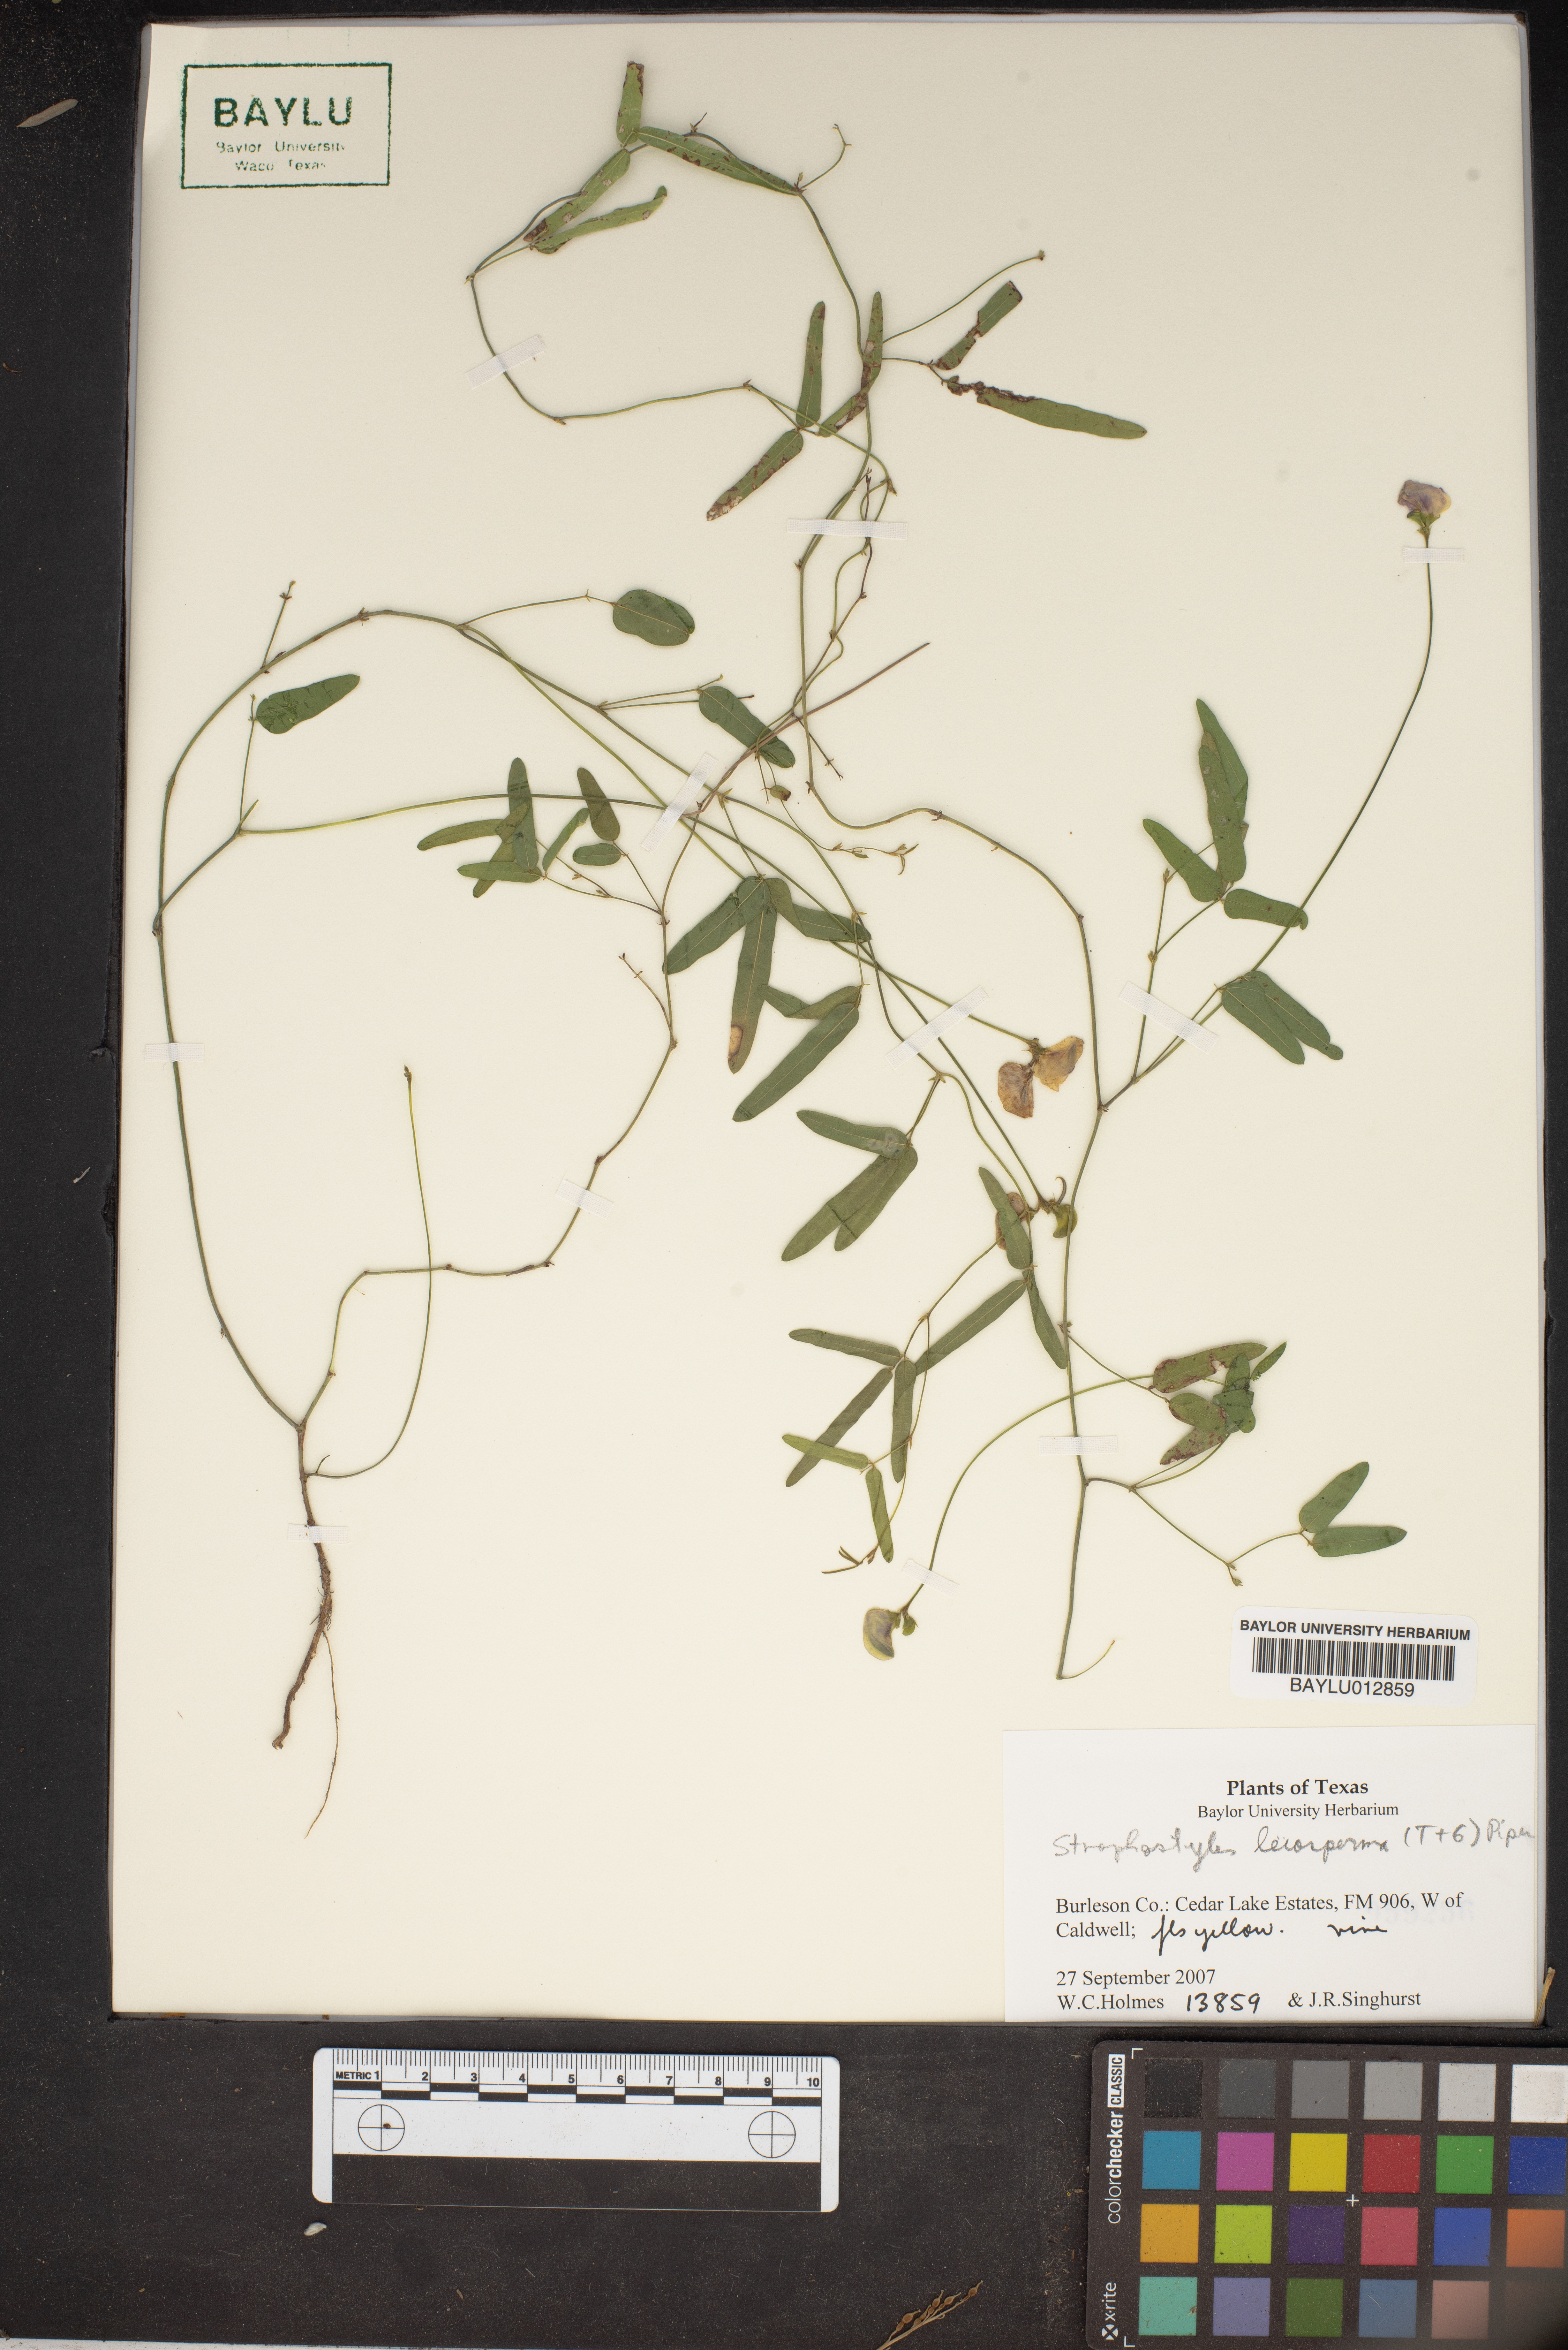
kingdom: Plantae
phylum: Tracheophyta
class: Magnoliopsida
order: Fabales
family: Fabaceae
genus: Strophostyles
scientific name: Strophostyles leiosperma
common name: Smooth-seed wild bean
